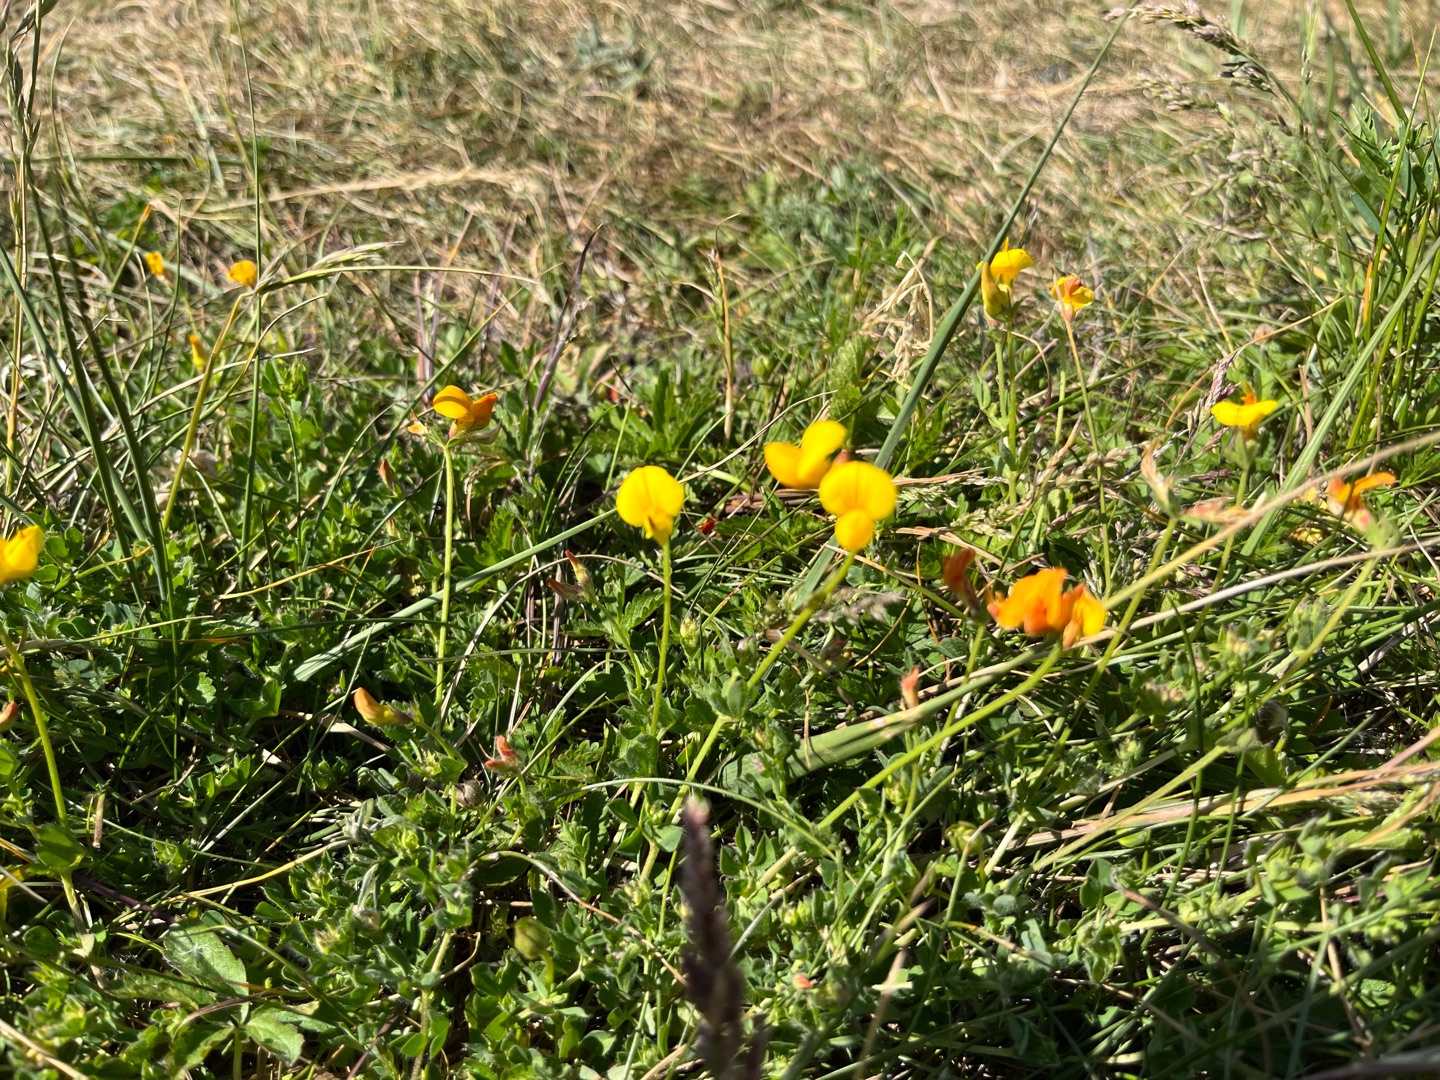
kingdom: Plantae
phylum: Tracheophyta
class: Magnoliopsida
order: Fabales
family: Fabaceae
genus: Lotus
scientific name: Lotus corniculatus
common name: Almindelig kællingetand
